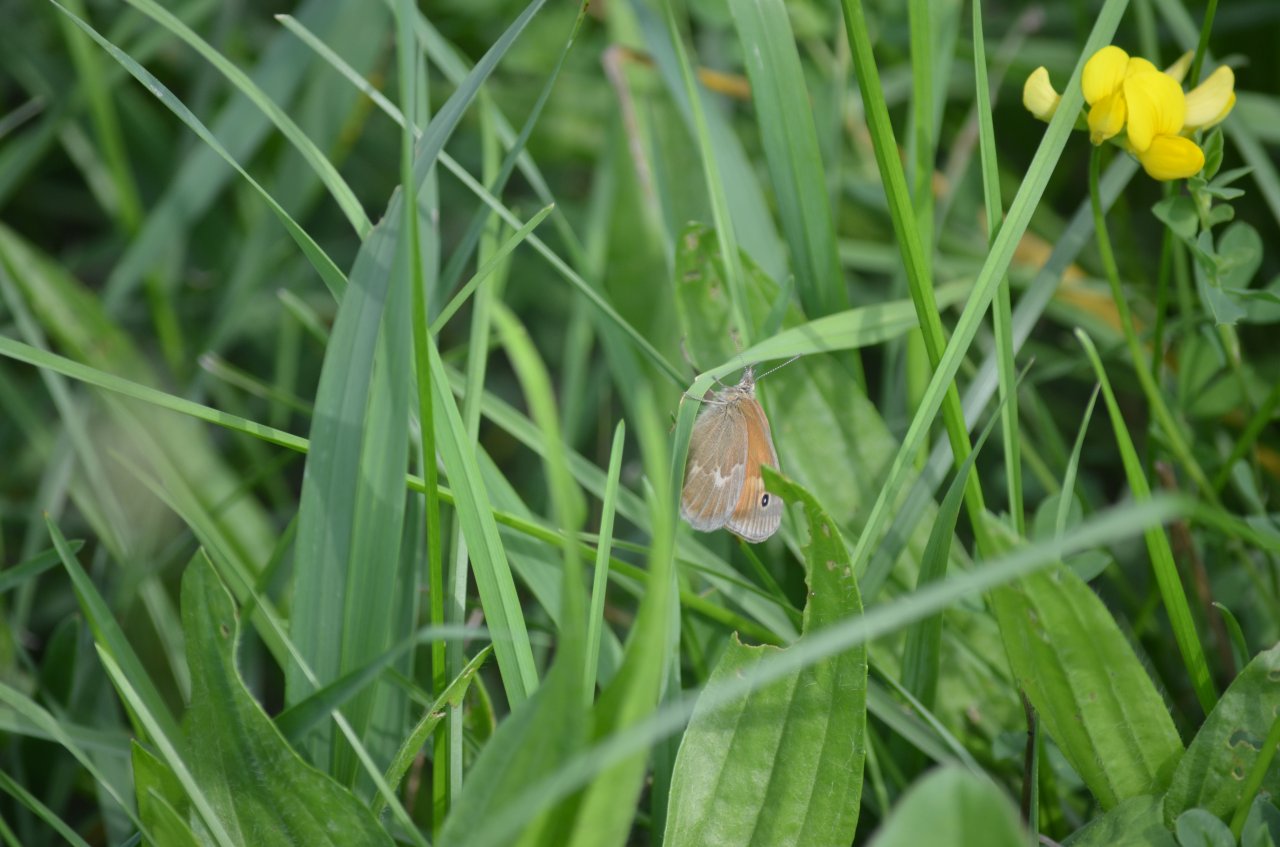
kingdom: Animalia
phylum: Arthropoda
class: Insecta
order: Lepidoptera
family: Nymphalidae
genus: Coenonympha
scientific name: Coenonympha tullia
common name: Large Heath
